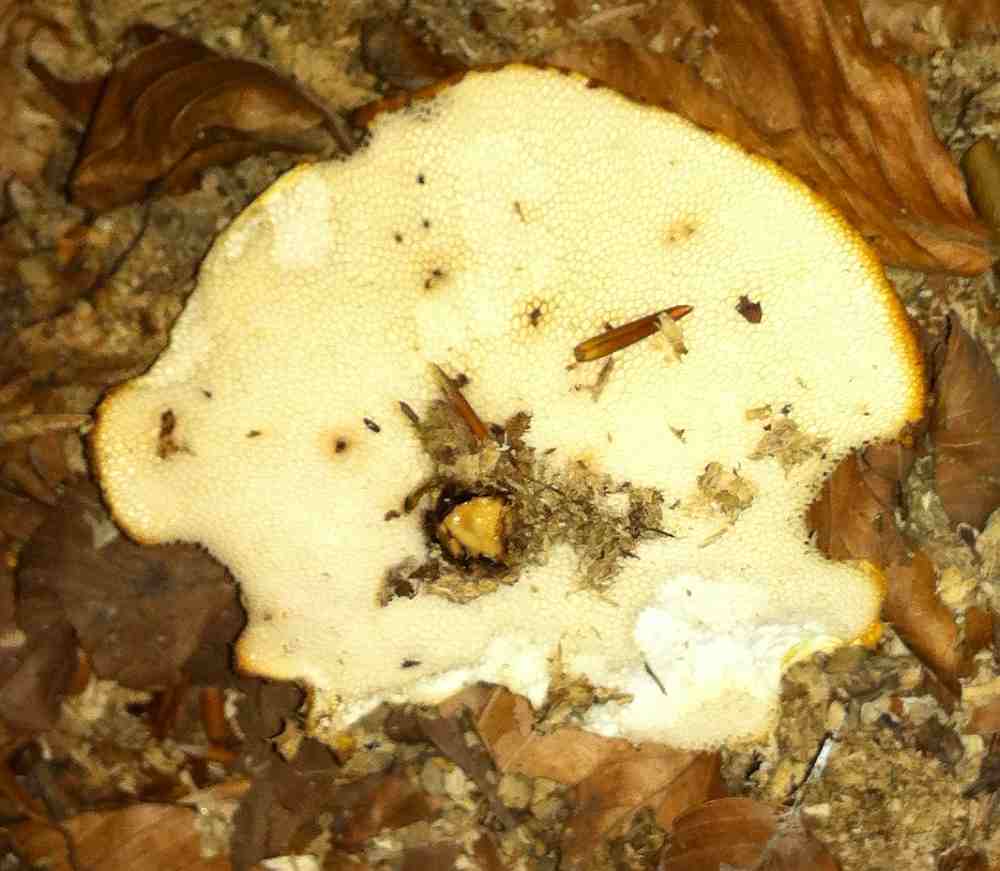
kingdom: Fungi
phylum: Basidiomycota
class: Agaricomycetes
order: Polyporales
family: Polyporaceae
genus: Polyporus
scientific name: Polyporus tuberaster
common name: knoldet stilkporesvamp
